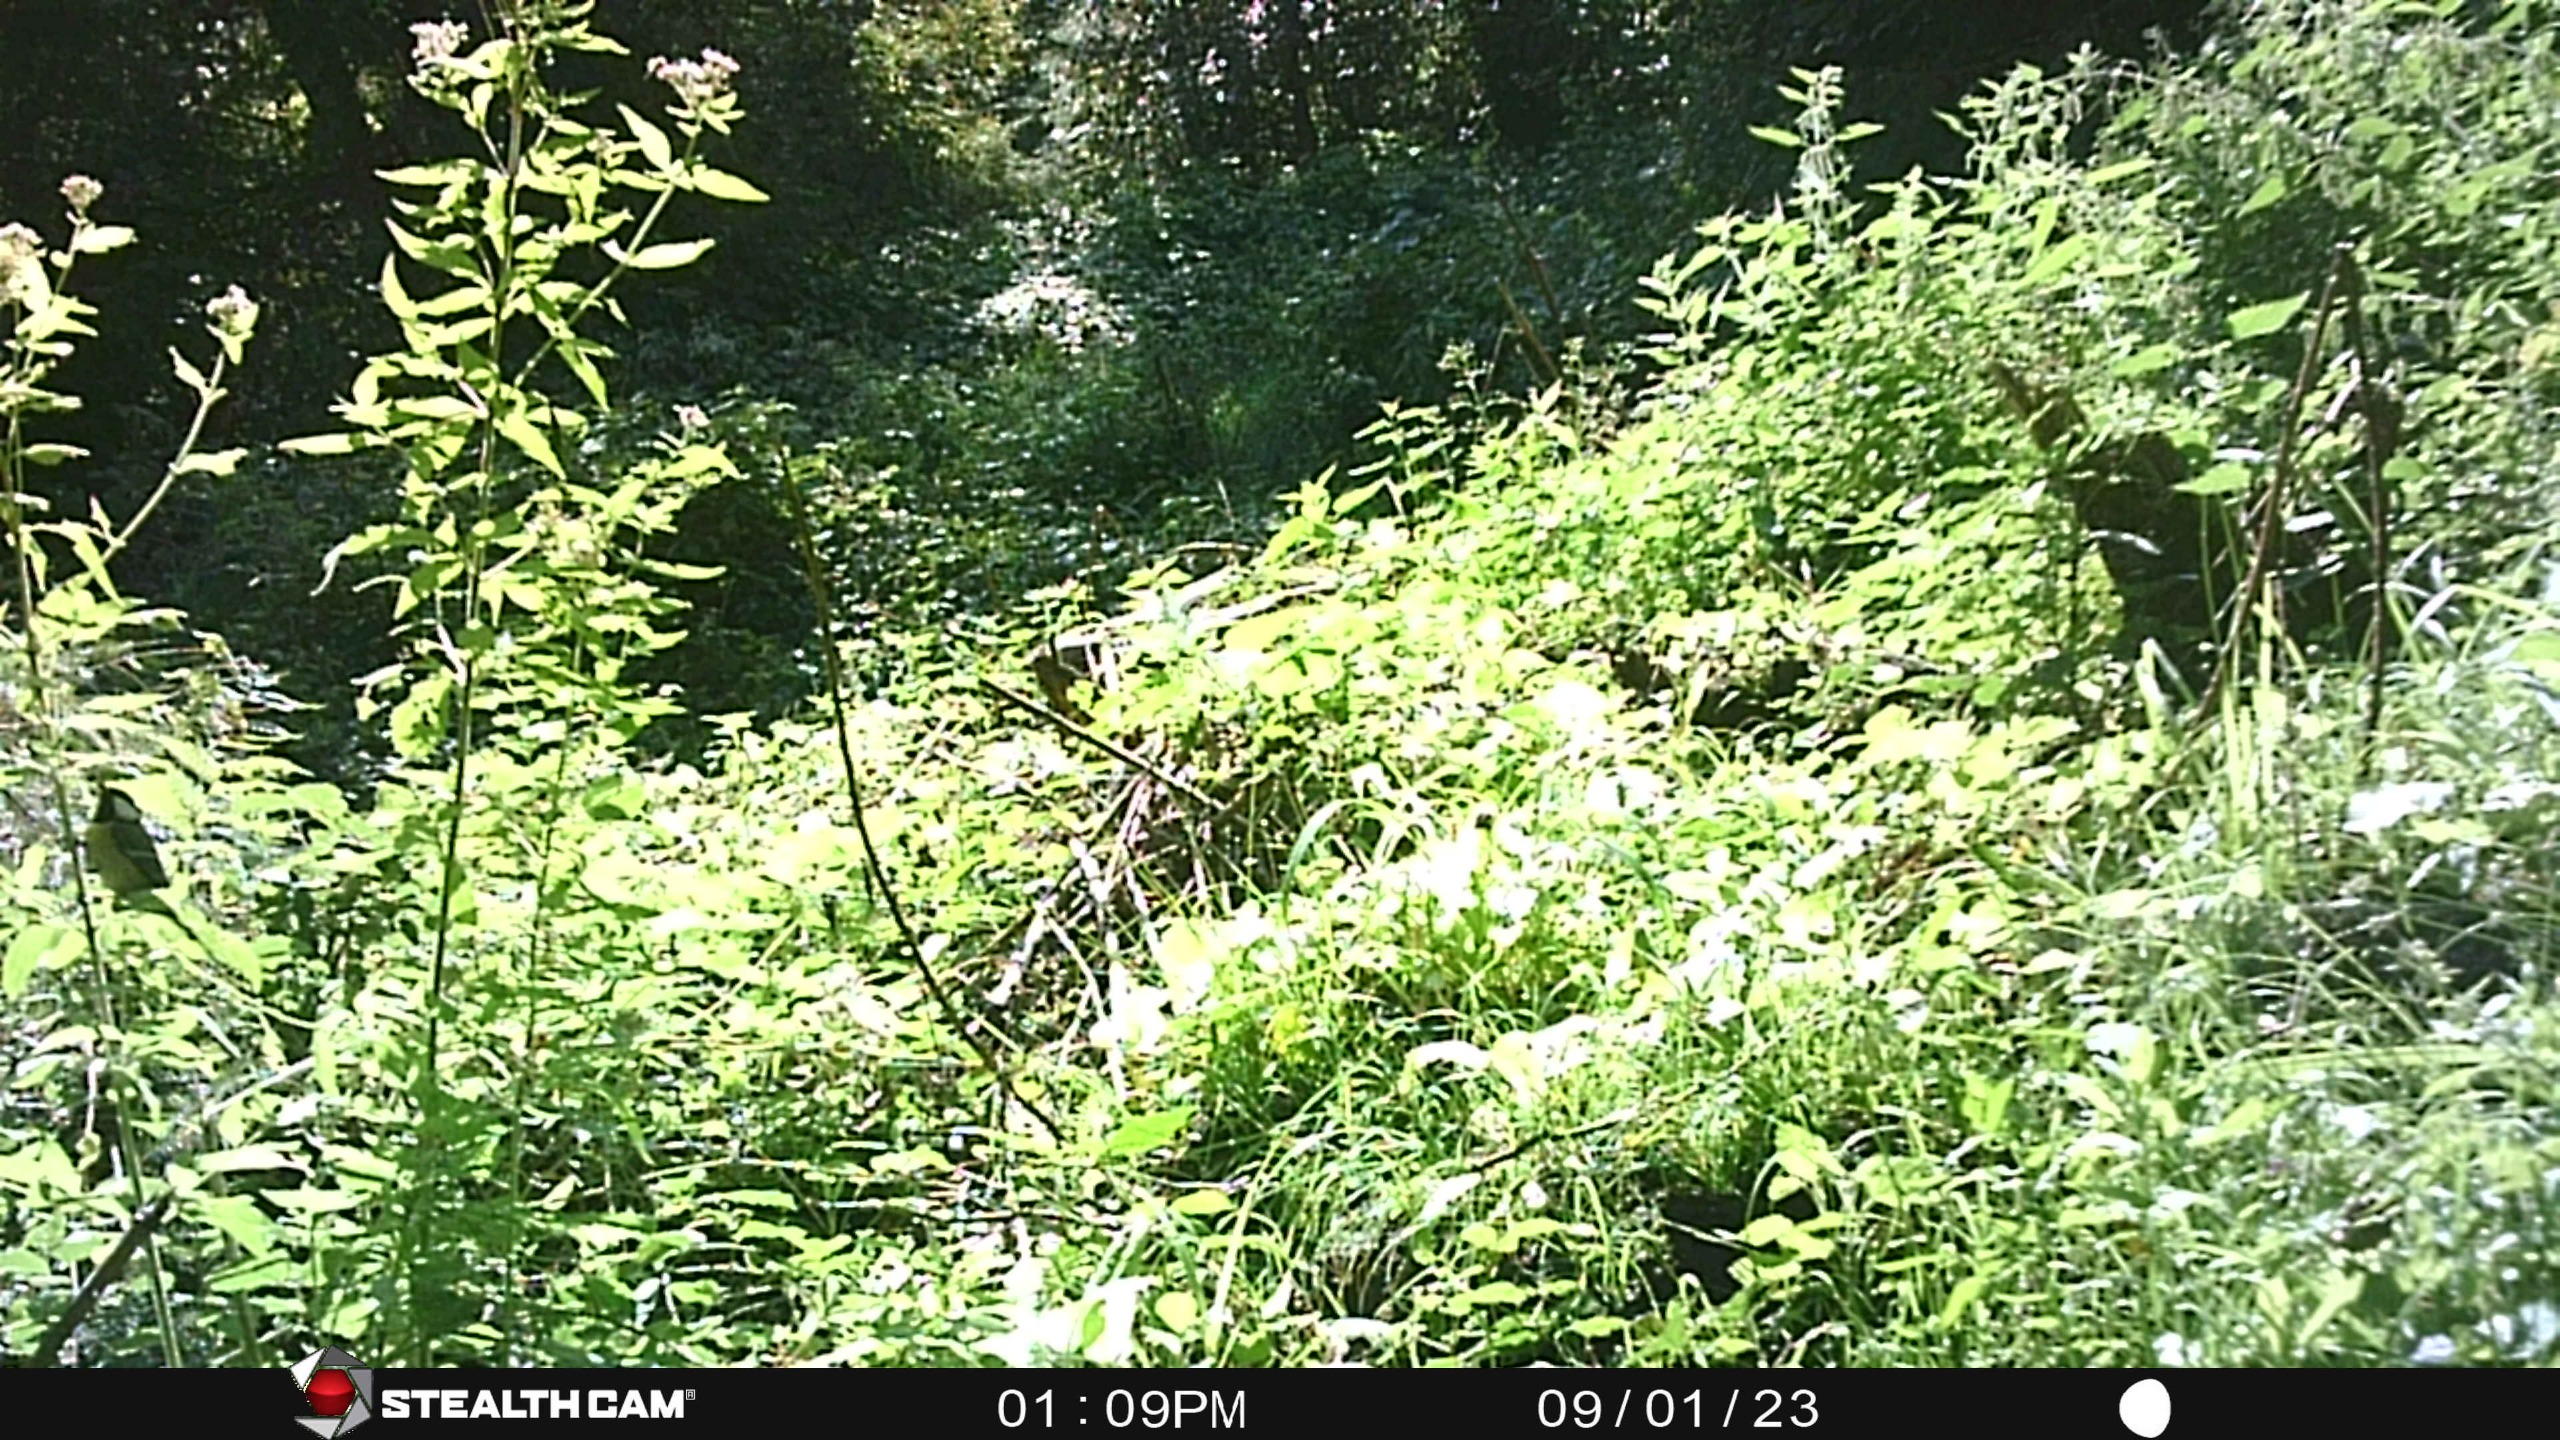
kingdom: Animalia
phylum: Chordata
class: Aves
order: Passeriformes
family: Paridae
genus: Parus
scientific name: Parus major
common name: Musvit
